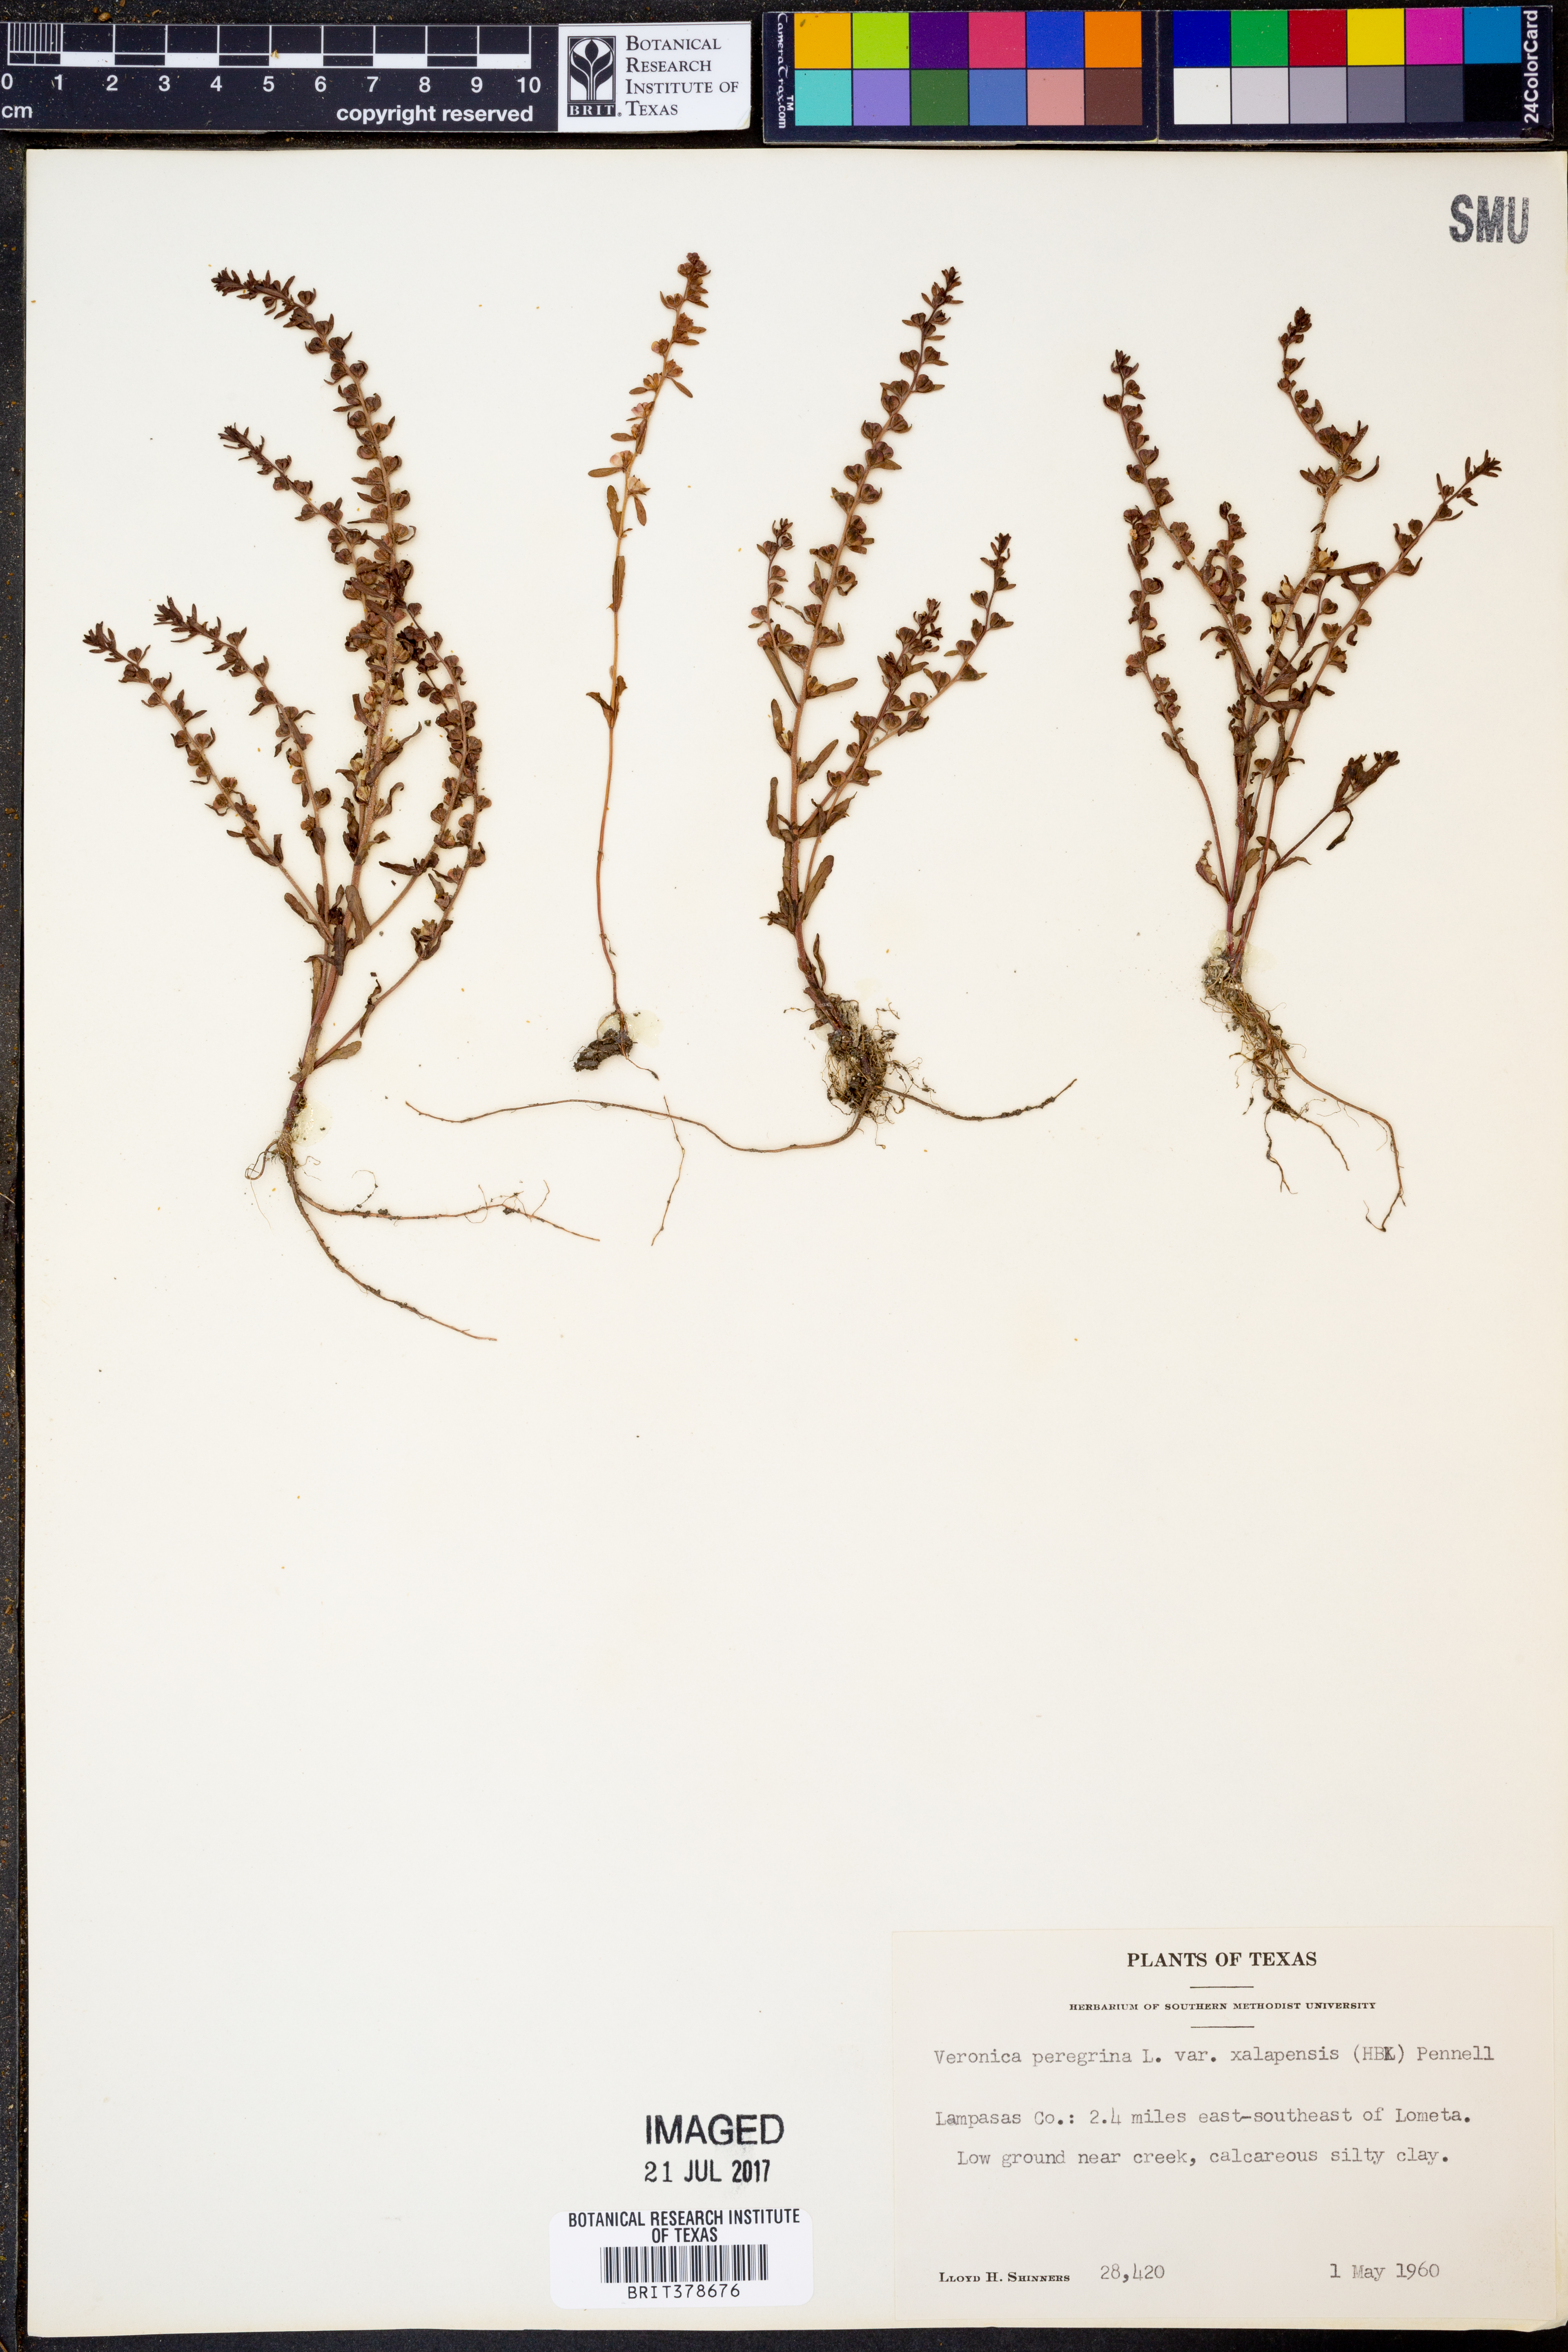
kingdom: Plantae
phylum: Tracheophyta
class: Magnoliopsida
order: Lamiales
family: Plantaginaceae
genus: Veronica
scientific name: Veronica peregrina
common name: Neckweed
